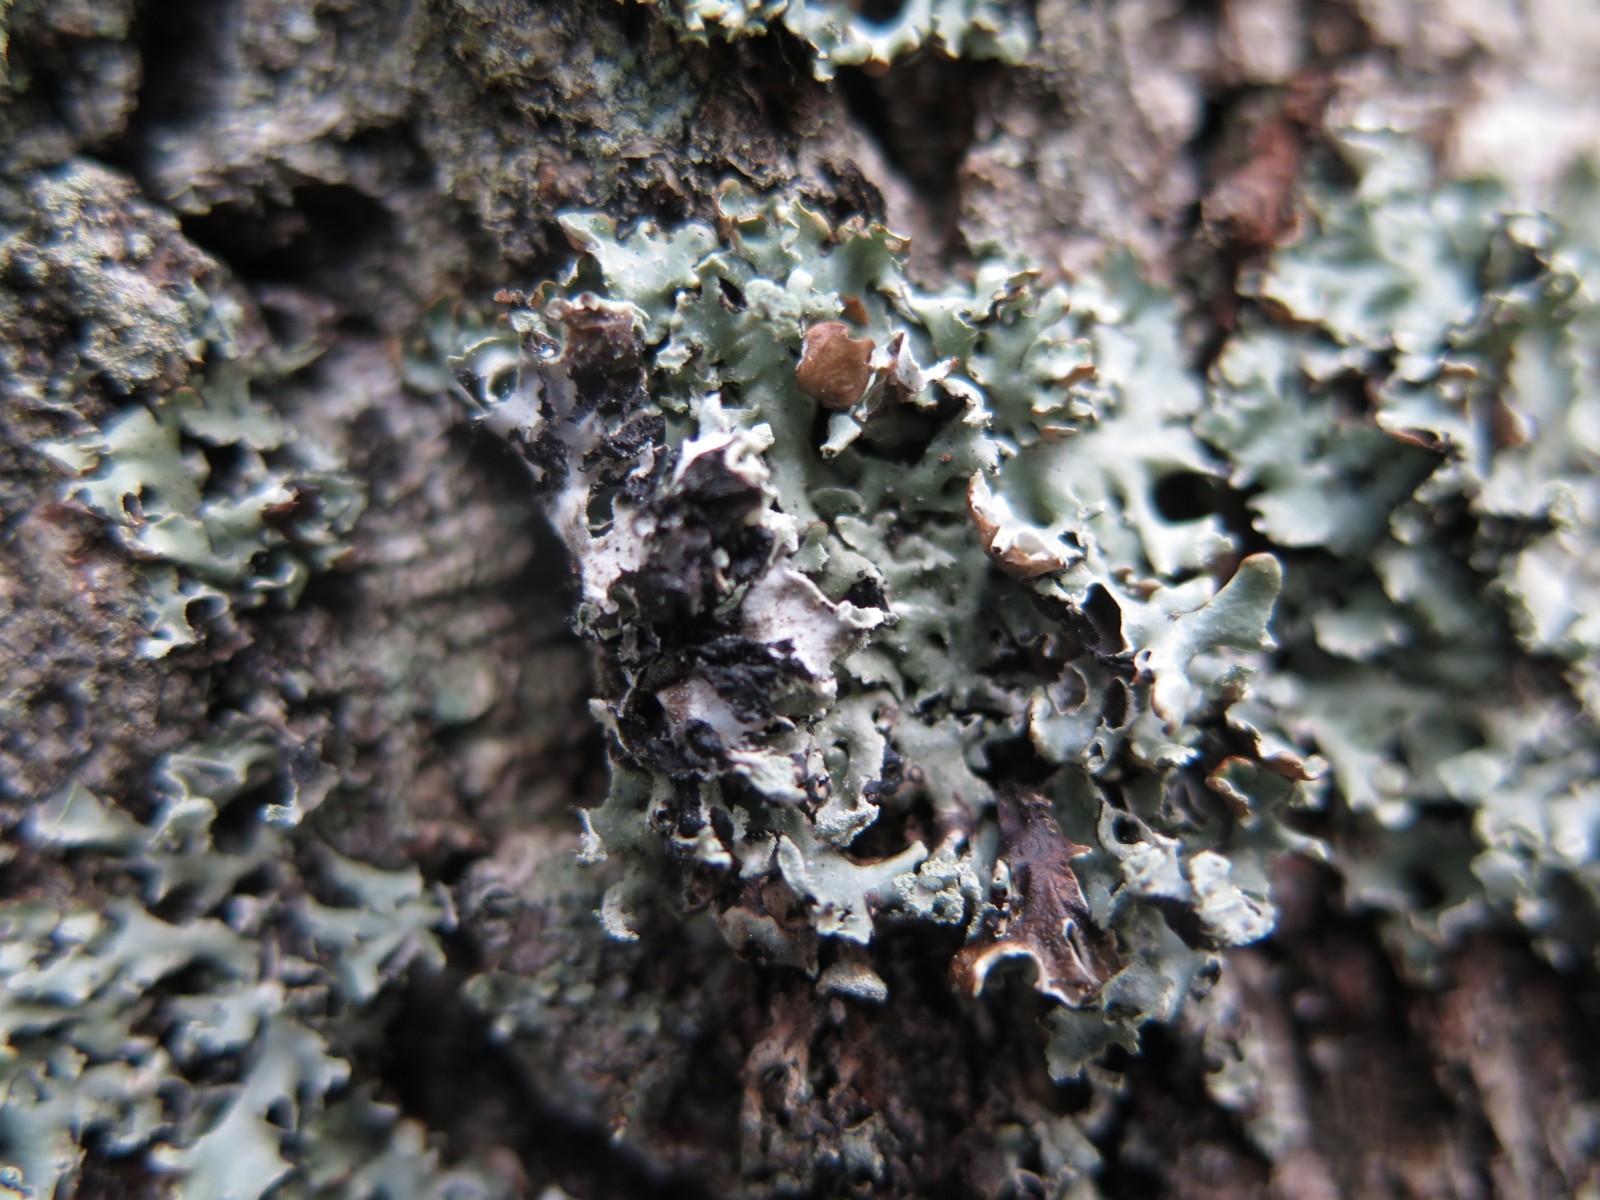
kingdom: Fungi
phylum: Ascomycota
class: Lecanoromycetes
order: Lecanorales
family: Parmeliaceae
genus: Hypogymnia
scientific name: Hypogymnia physodes
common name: almindelig kvistlav
